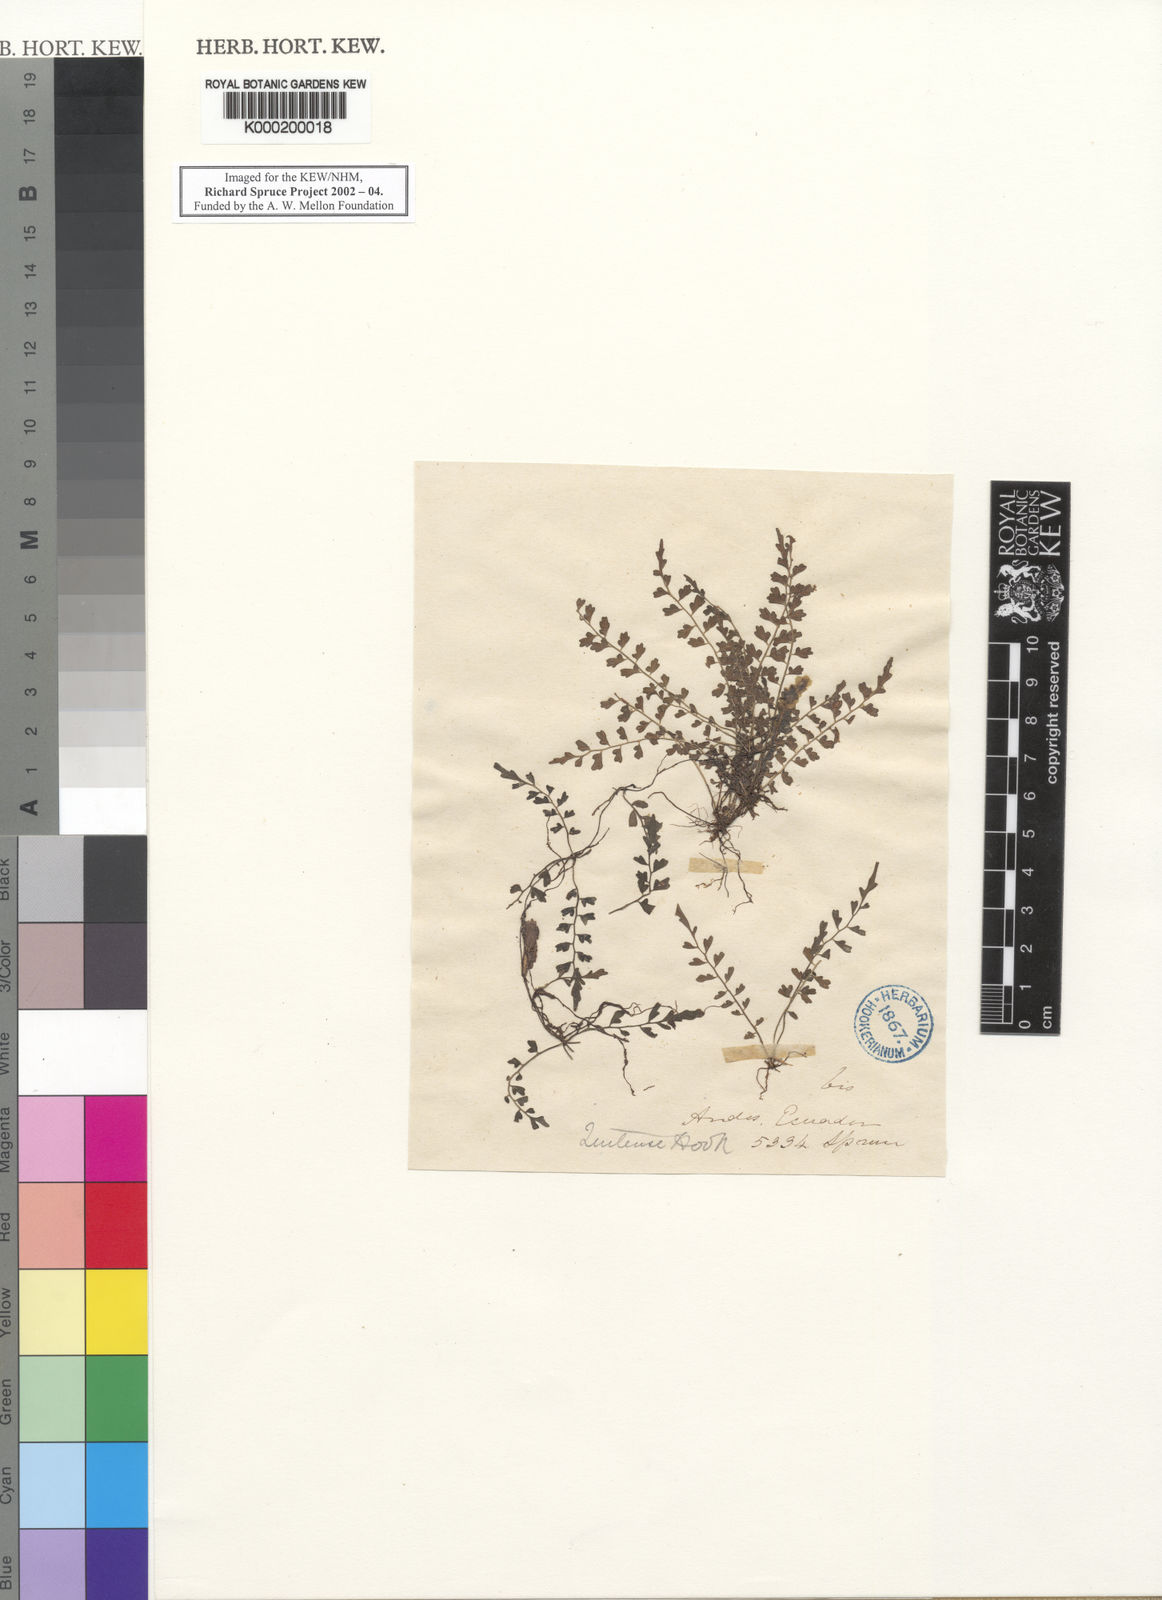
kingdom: Plantae
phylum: Tracheophyta
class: Polypodiopsida
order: Polypodiales
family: Aspleniaceae
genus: Asplenium
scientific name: Asplenium quitense
